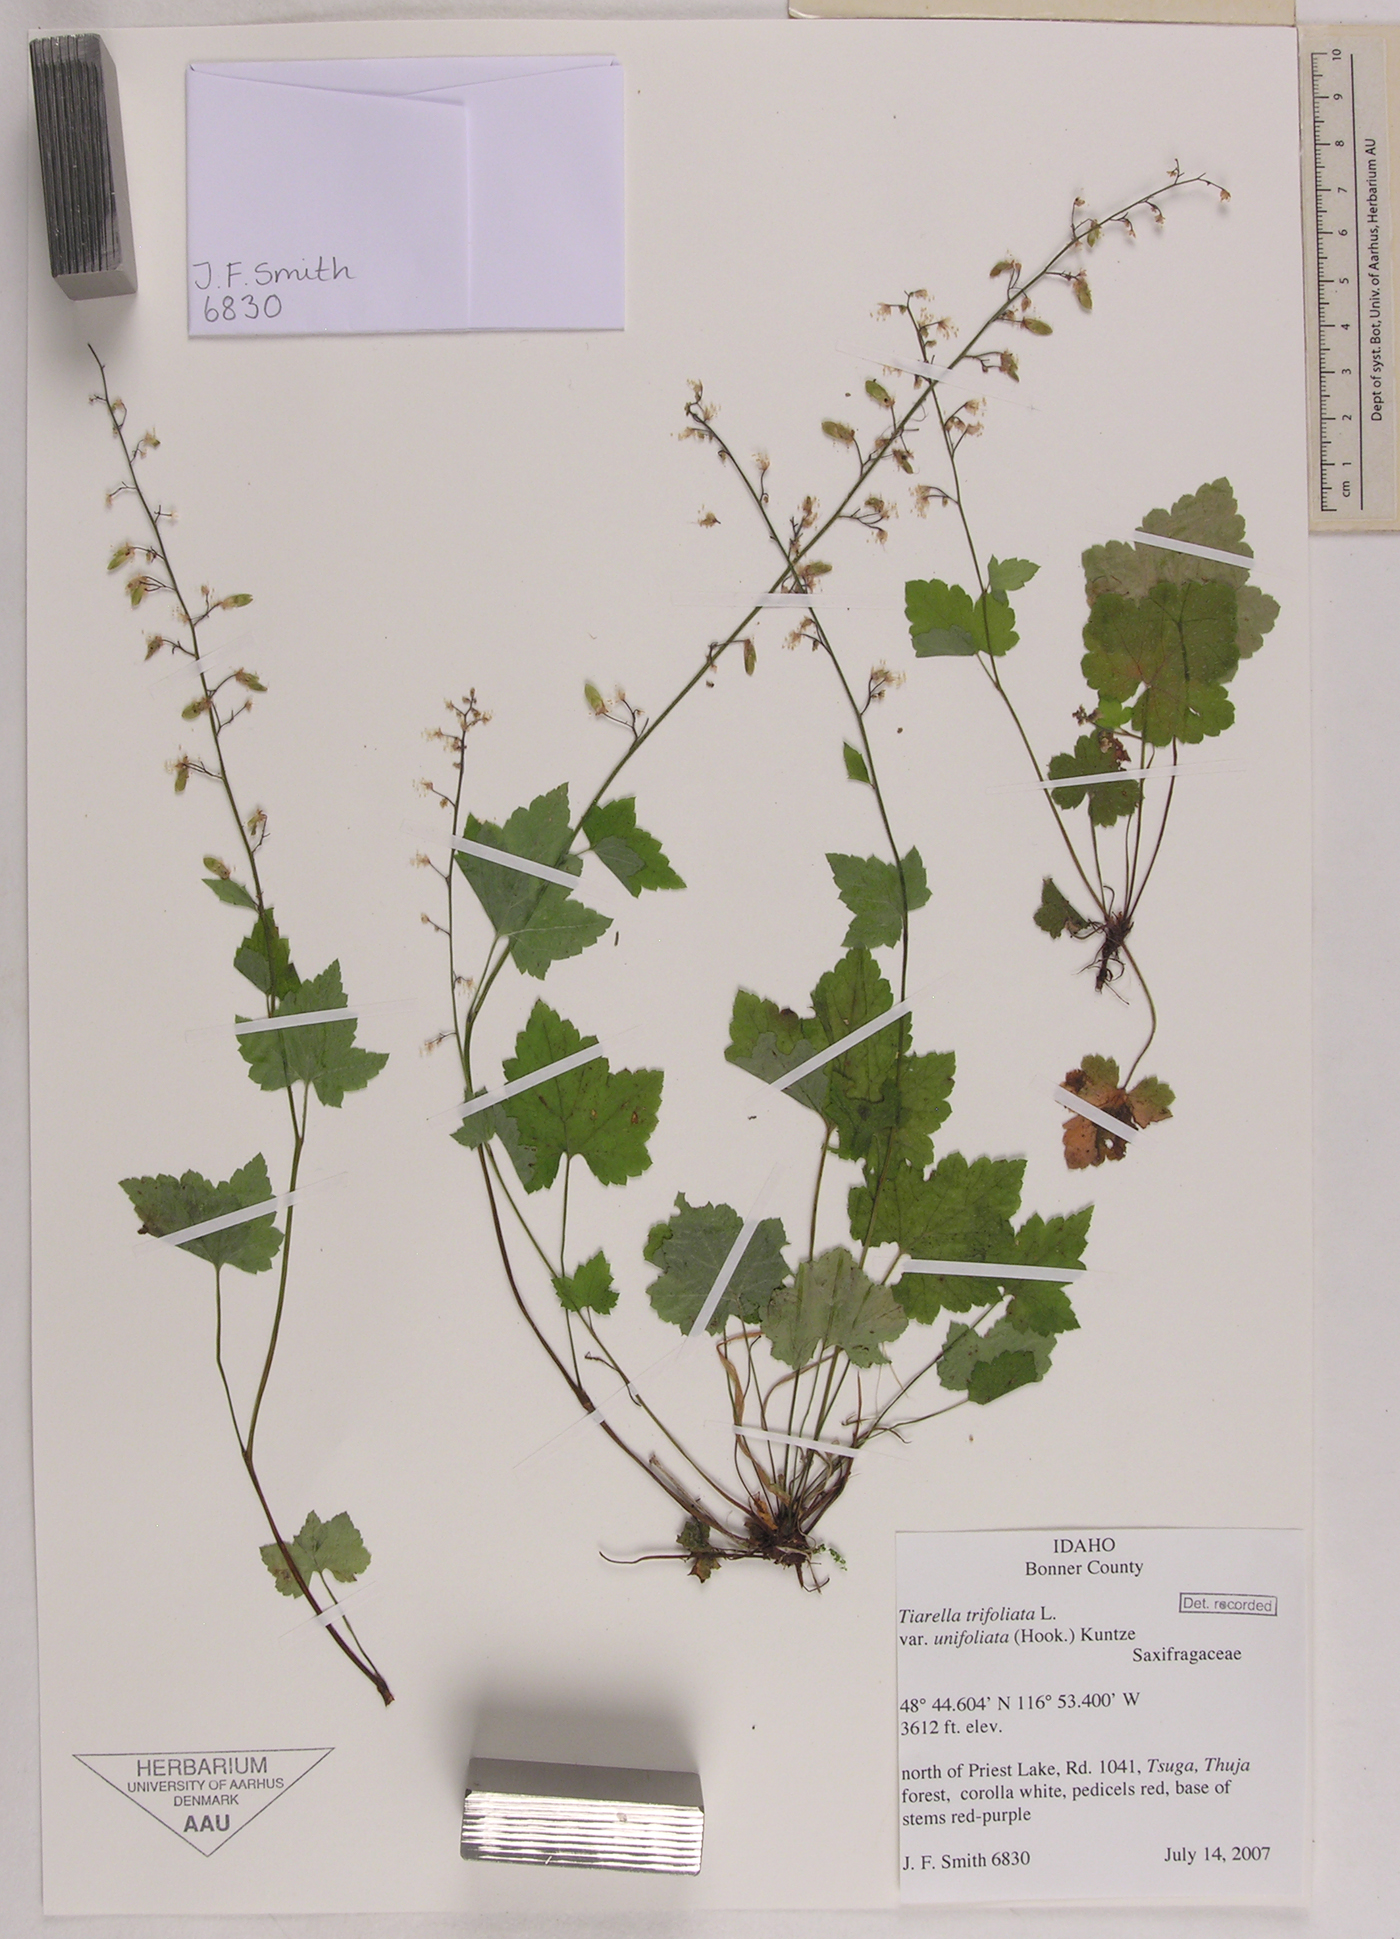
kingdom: Plantae
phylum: Tracheophyta
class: Magnoliopsida
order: Saxifragales
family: Saxifragaceae
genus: Tiarella
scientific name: Tiarella trifoliata
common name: Sugar-scoop
